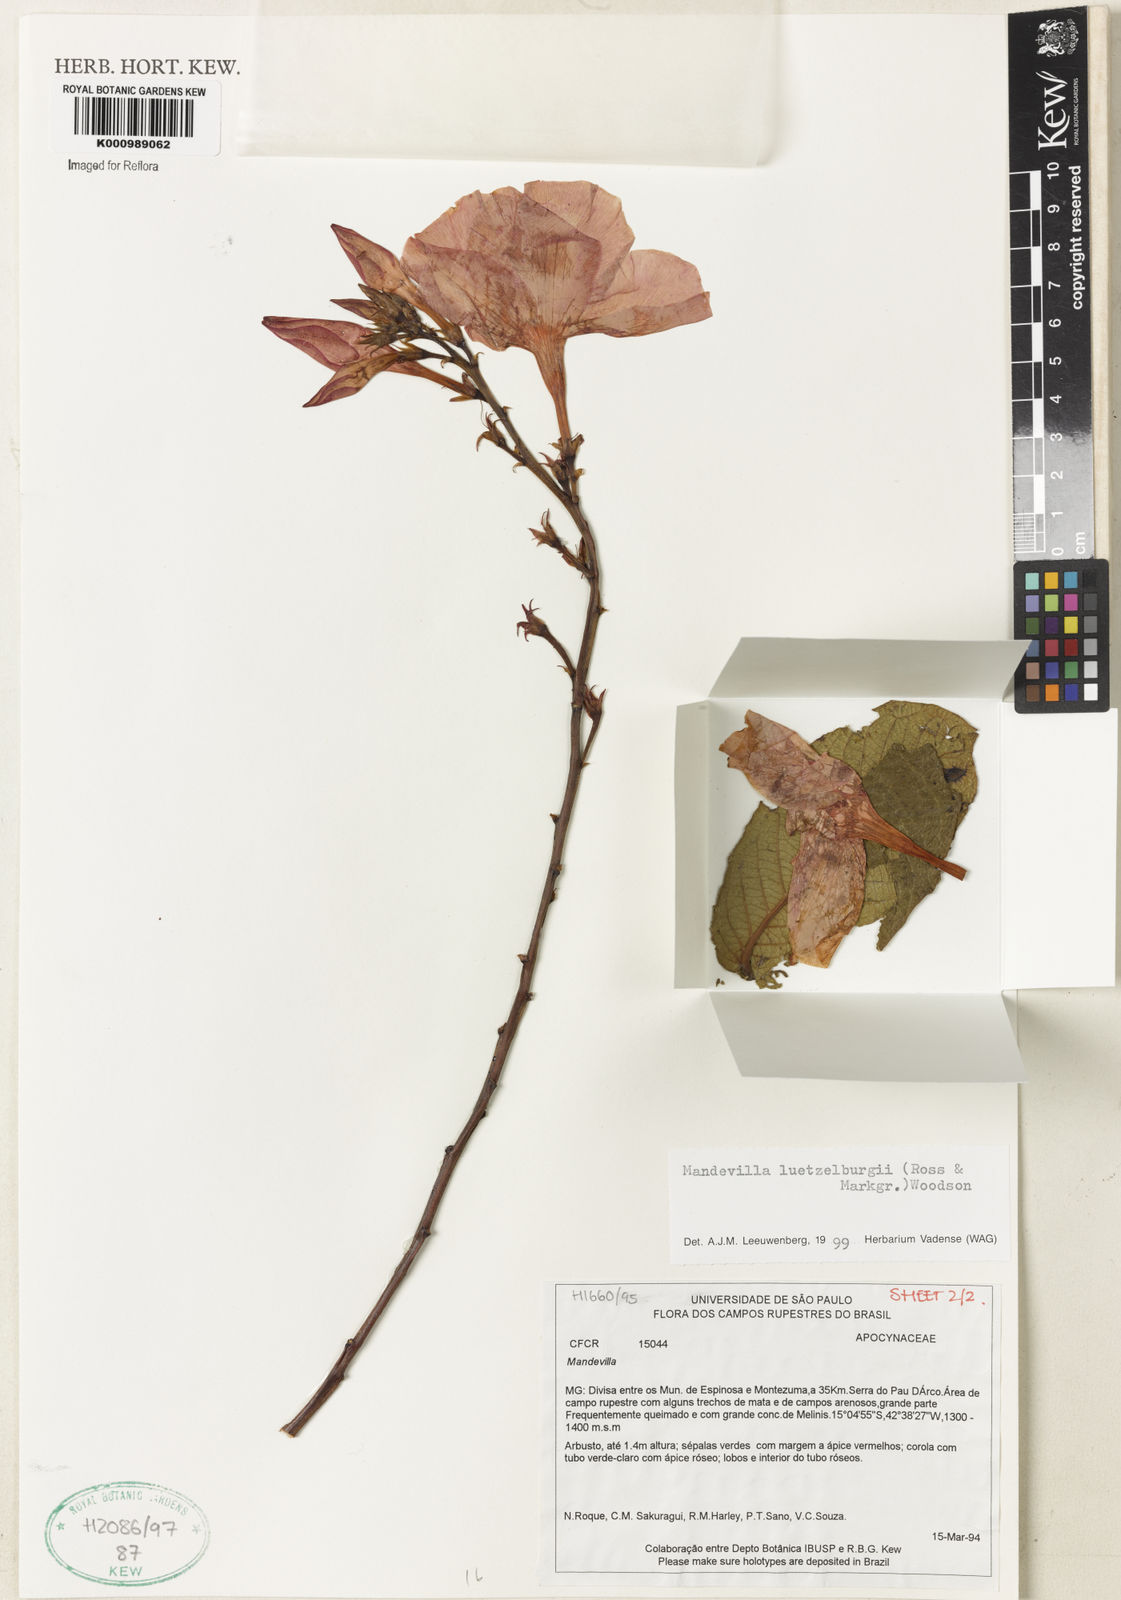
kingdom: Plantae
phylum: Tracheophyta
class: Magnoliopsida
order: Gentianales
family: Apocynaceae
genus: Mandevilla
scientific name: Mandevilla luetzelburgii
